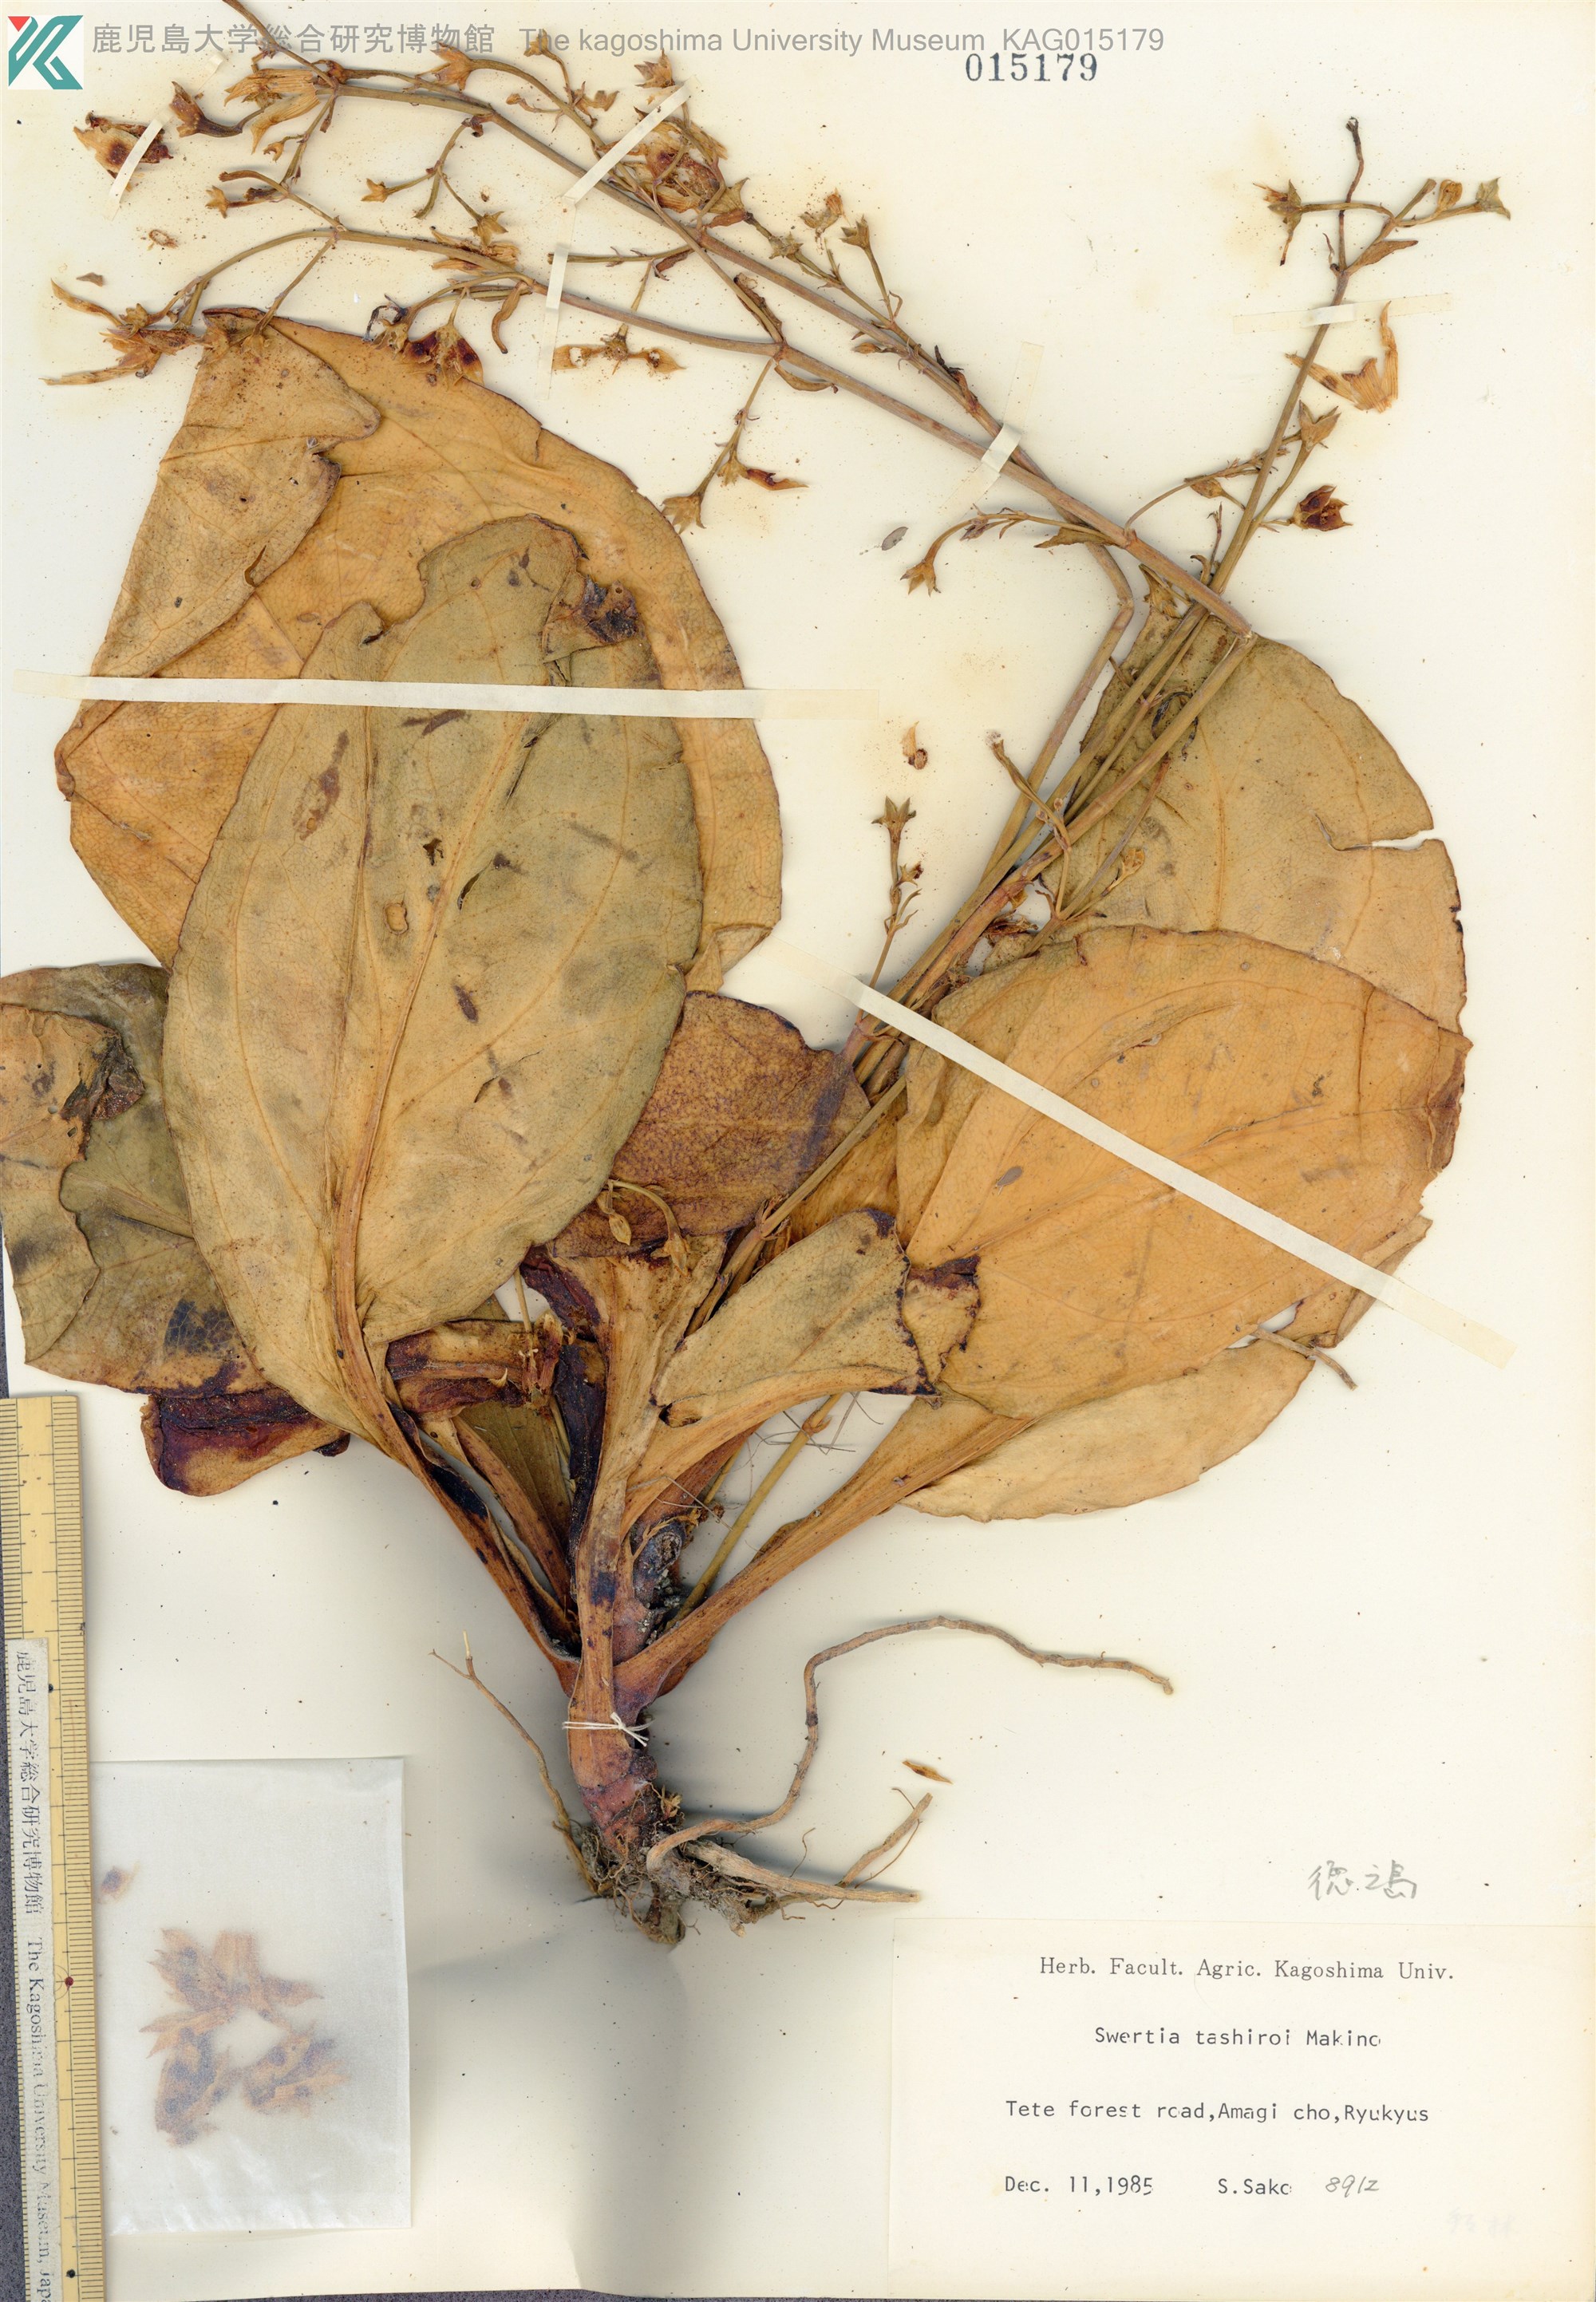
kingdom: Plantae
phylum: Tracheophyta
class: Magnoliopsida
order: Gentianales
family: Gentianaceae
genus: Swertia
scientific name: Swertia tashiroi
